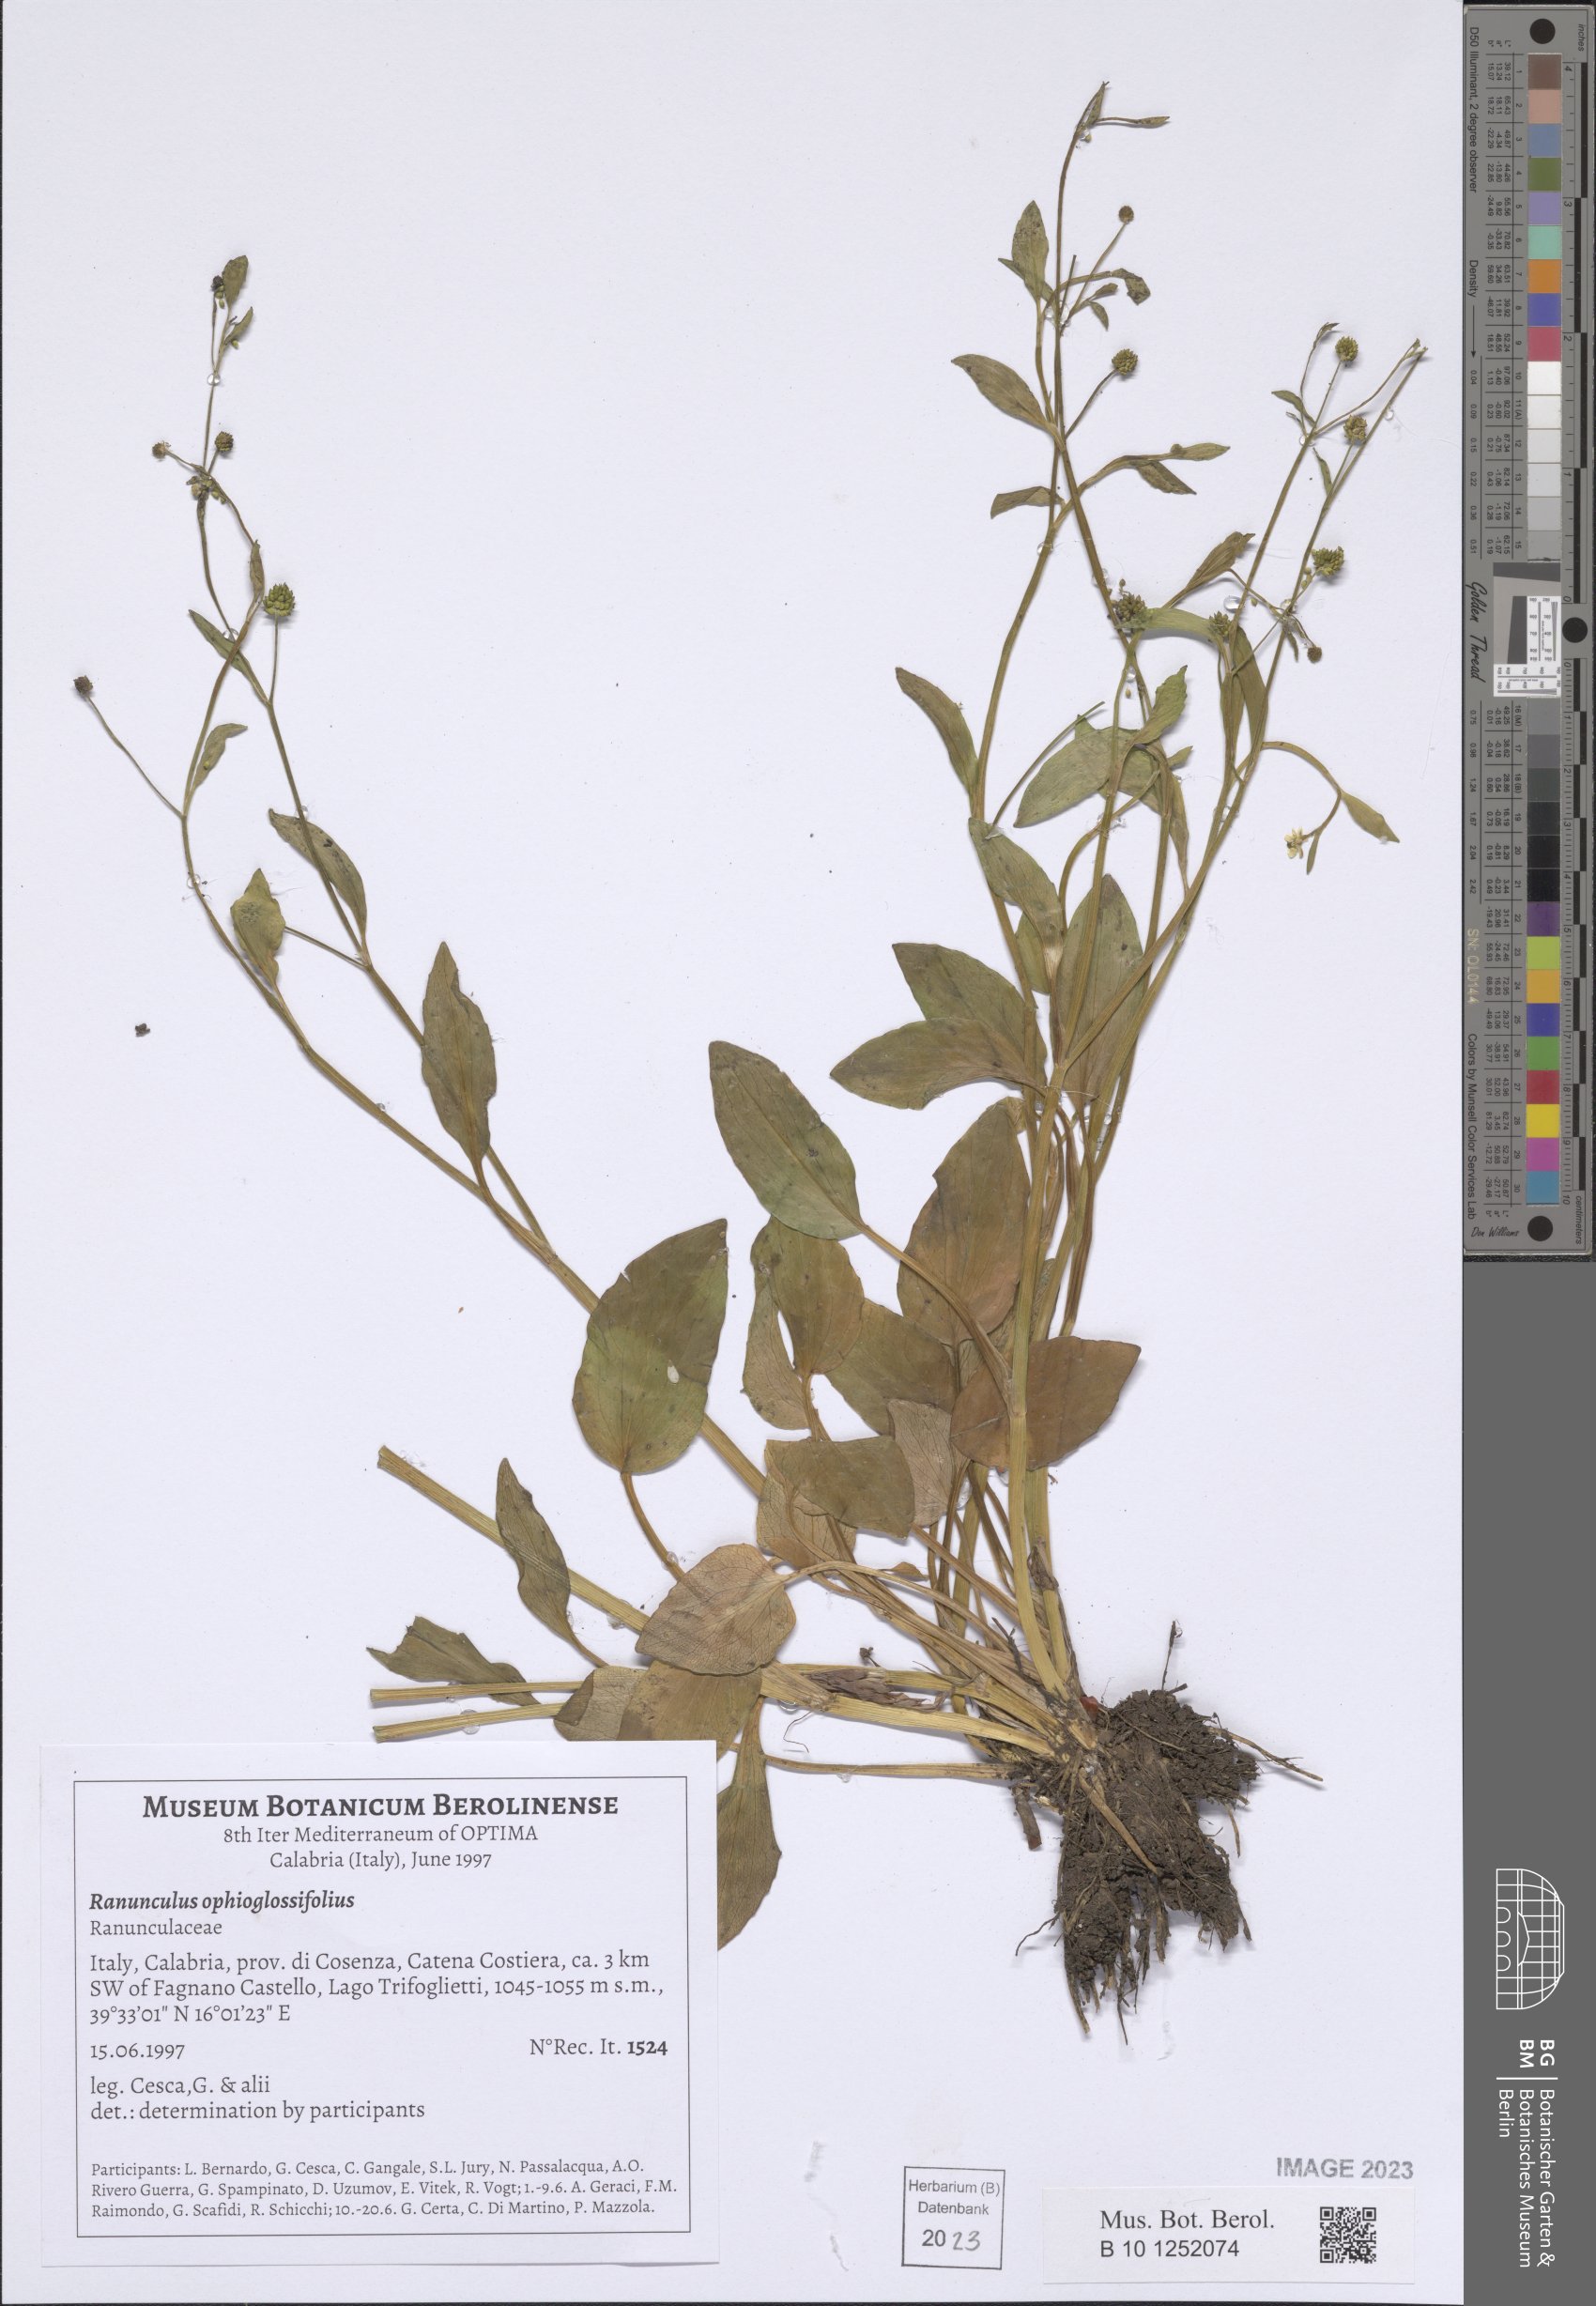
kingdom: Plantae
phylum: Tracheophyta
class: Magnoliopsida
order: Ranunculales
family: Ranunculaceae
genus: Ranunculus
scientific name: Ranunculus ophioglossifolius
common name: Adder's-tongue spearwort
